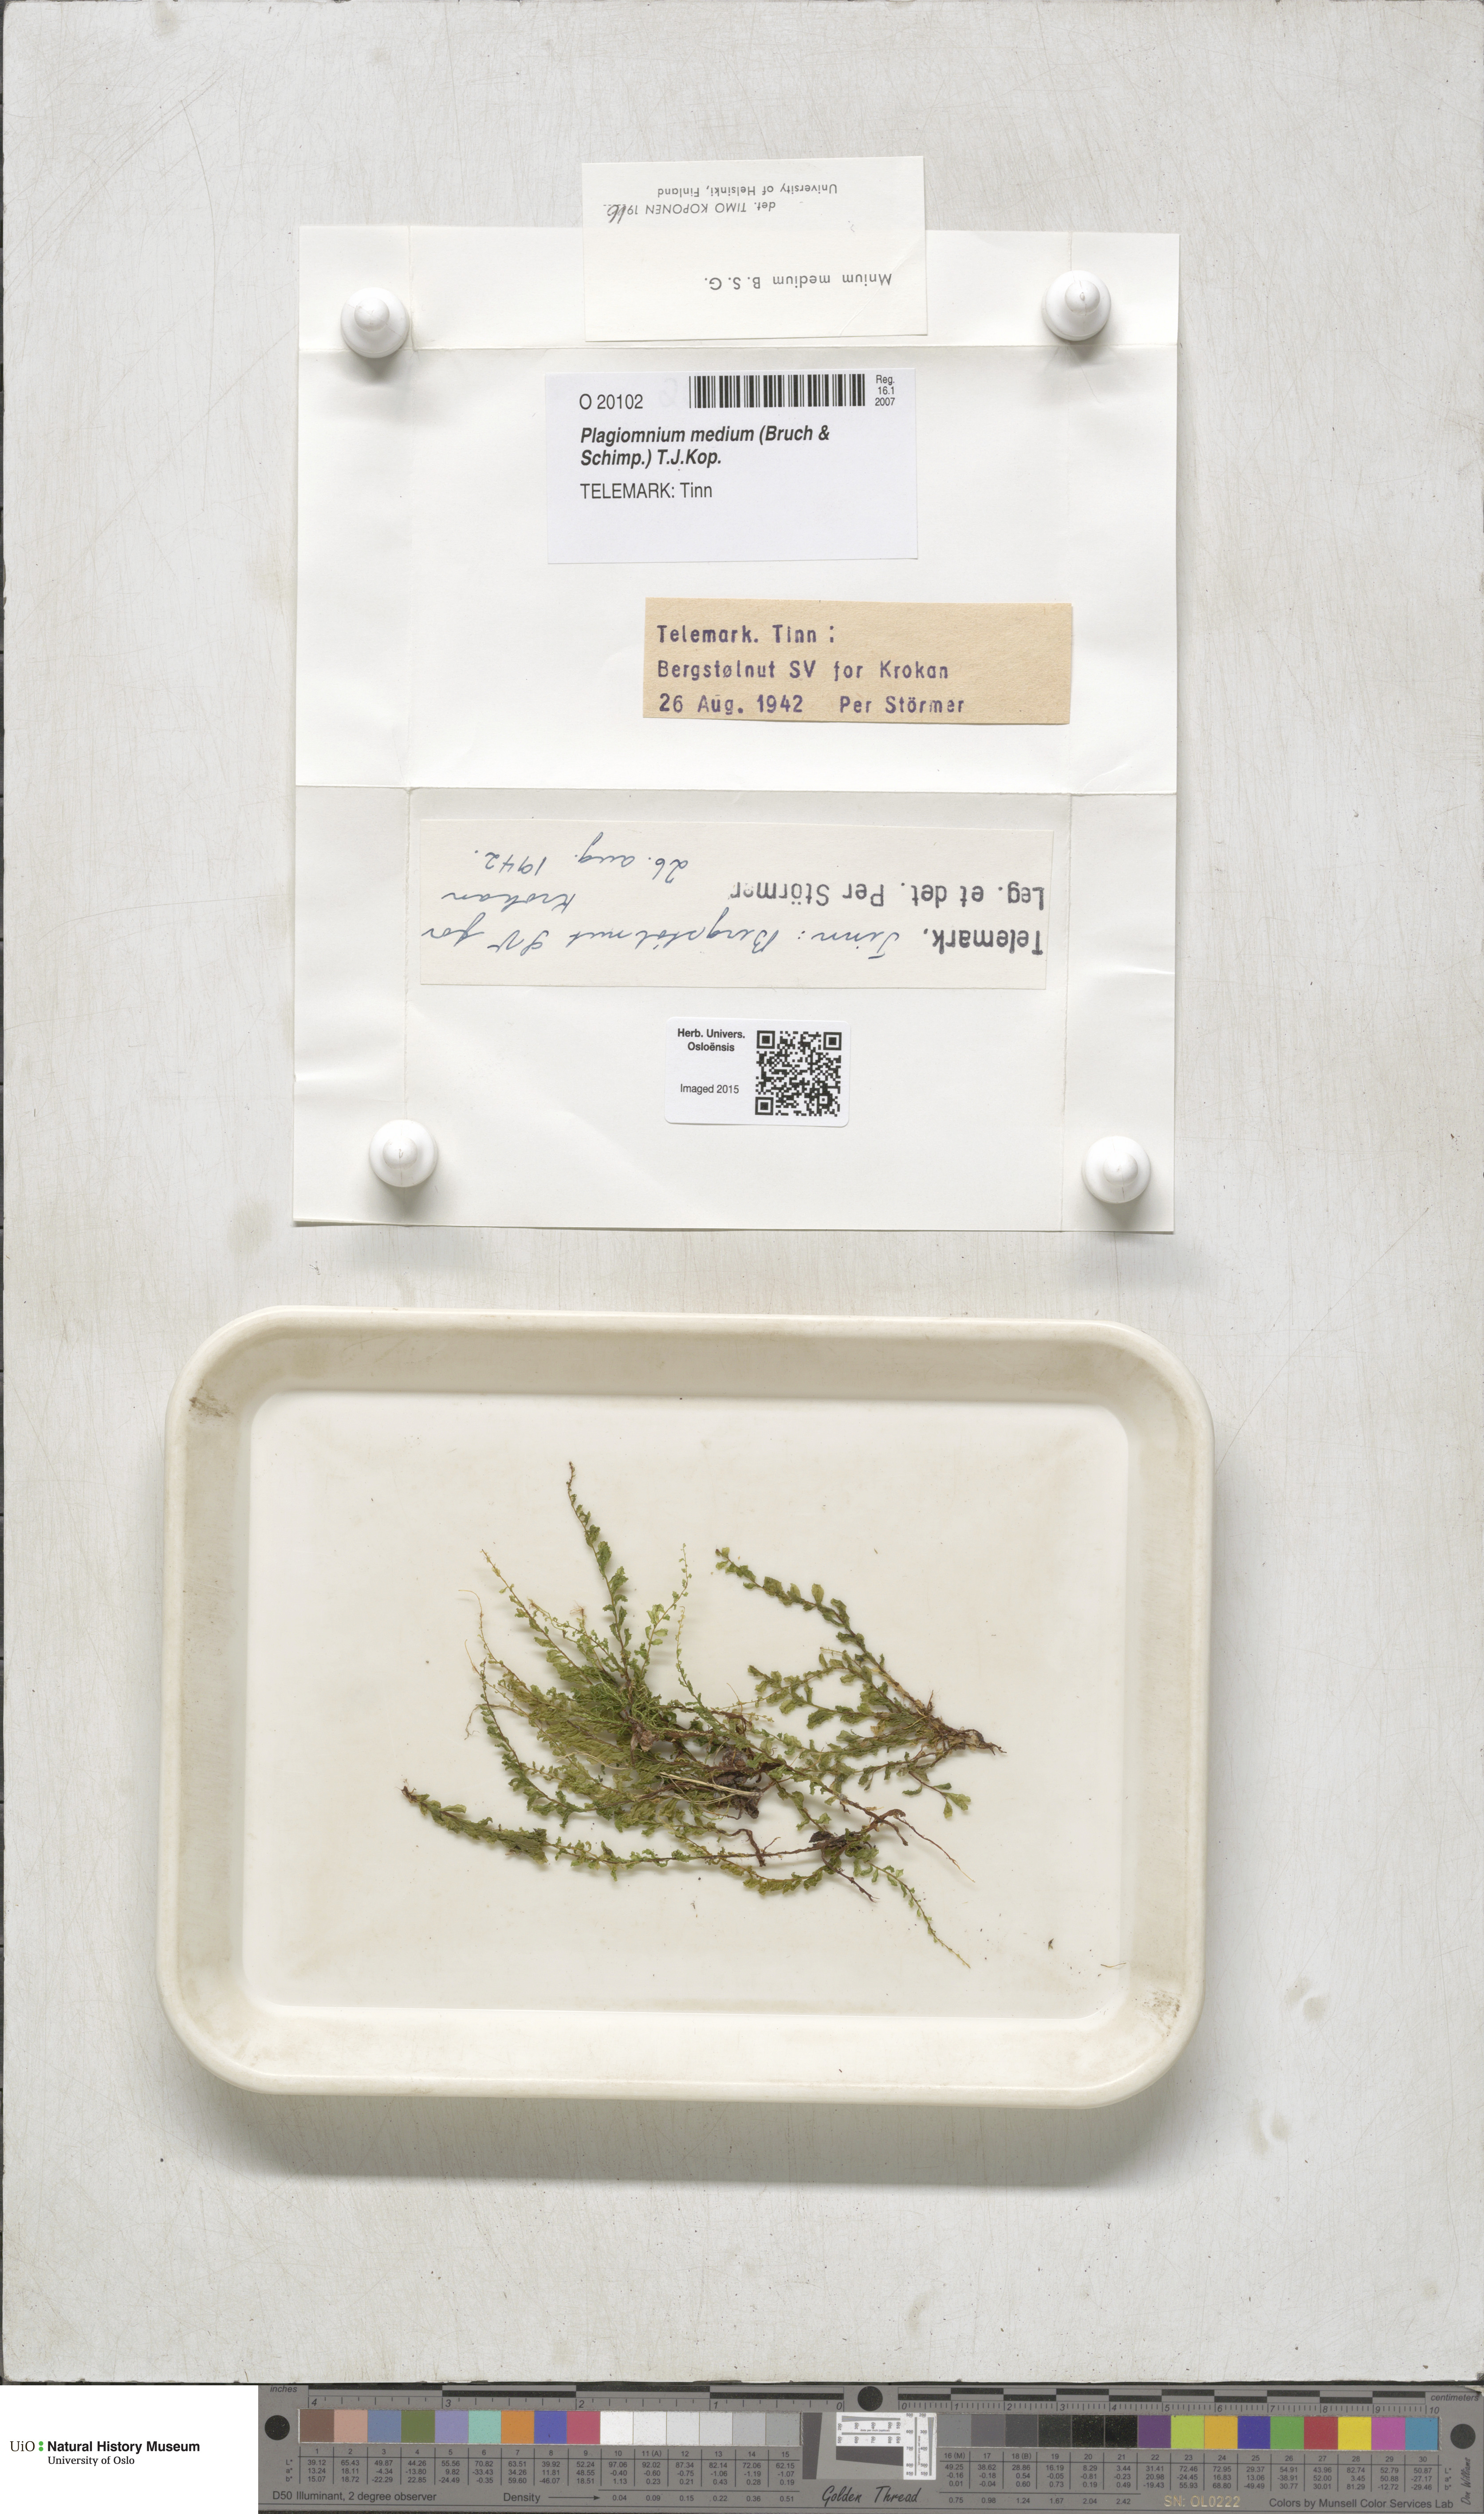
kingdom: Plantae
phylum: Bryophyta
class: Bryopsida
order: Bryales
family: Mniaceae
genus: Plagiomnium
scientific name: Plagiomnium medium
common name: Alpine leafy moss
